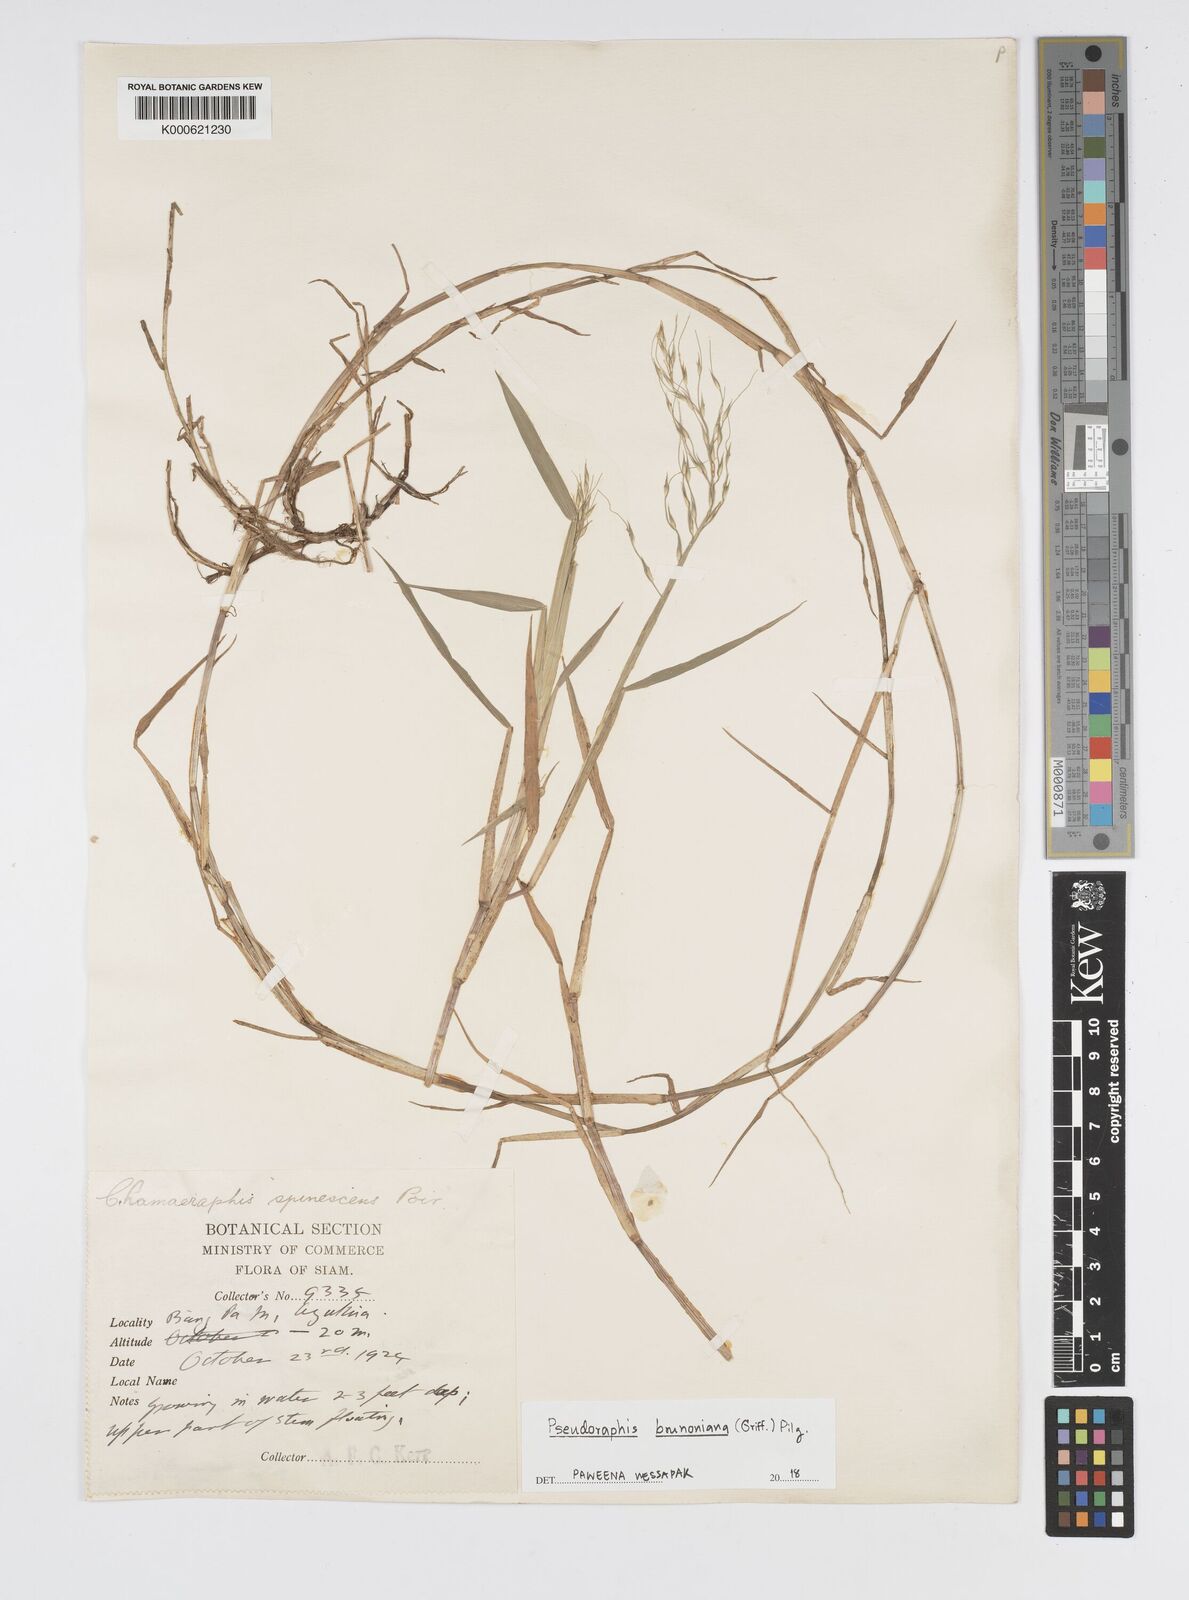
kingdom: Plantae
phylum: Tracheophyta
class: Liliopsida
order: Poales
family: Poaceae
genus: Pseudoraphis
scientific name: Pseudoraphis brunoniana
